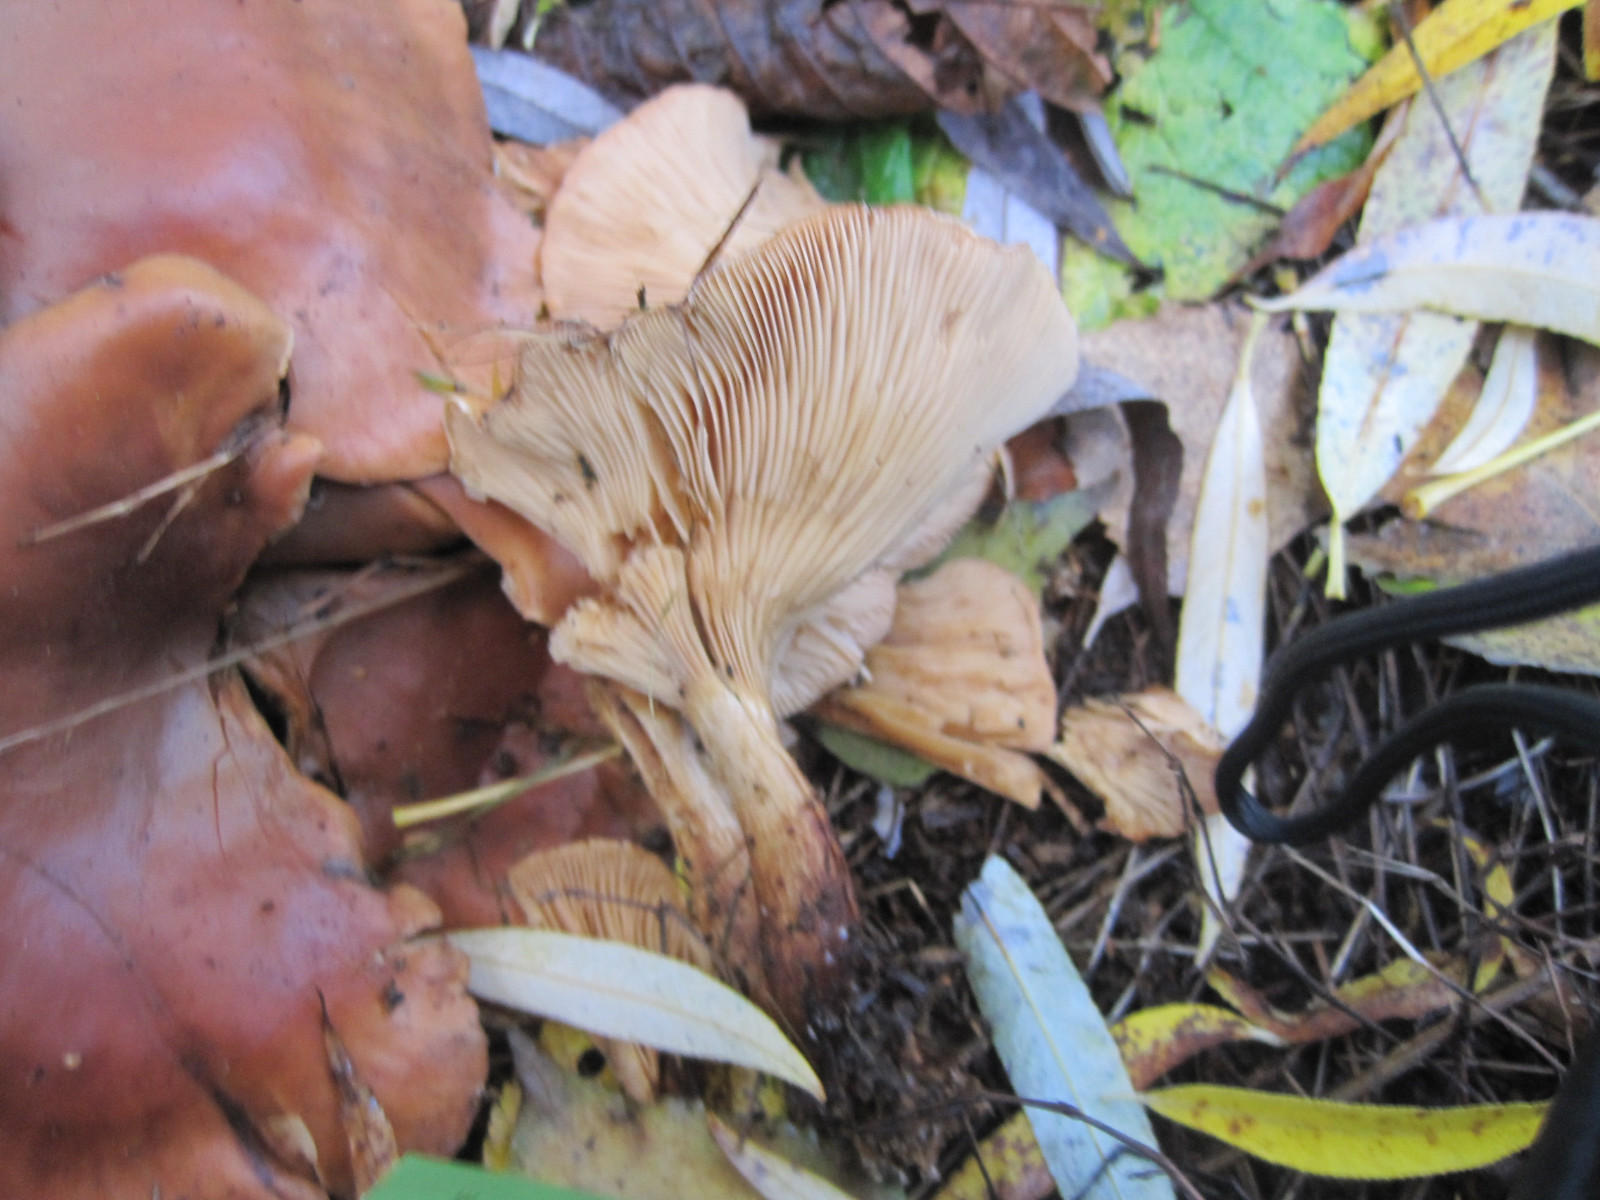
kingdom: Fungi
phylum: Basidiomycota
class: Agaricomycetes
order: Agaricales
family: Tricholomataceae
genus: Paralepista
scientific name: Paralepista flaccida
